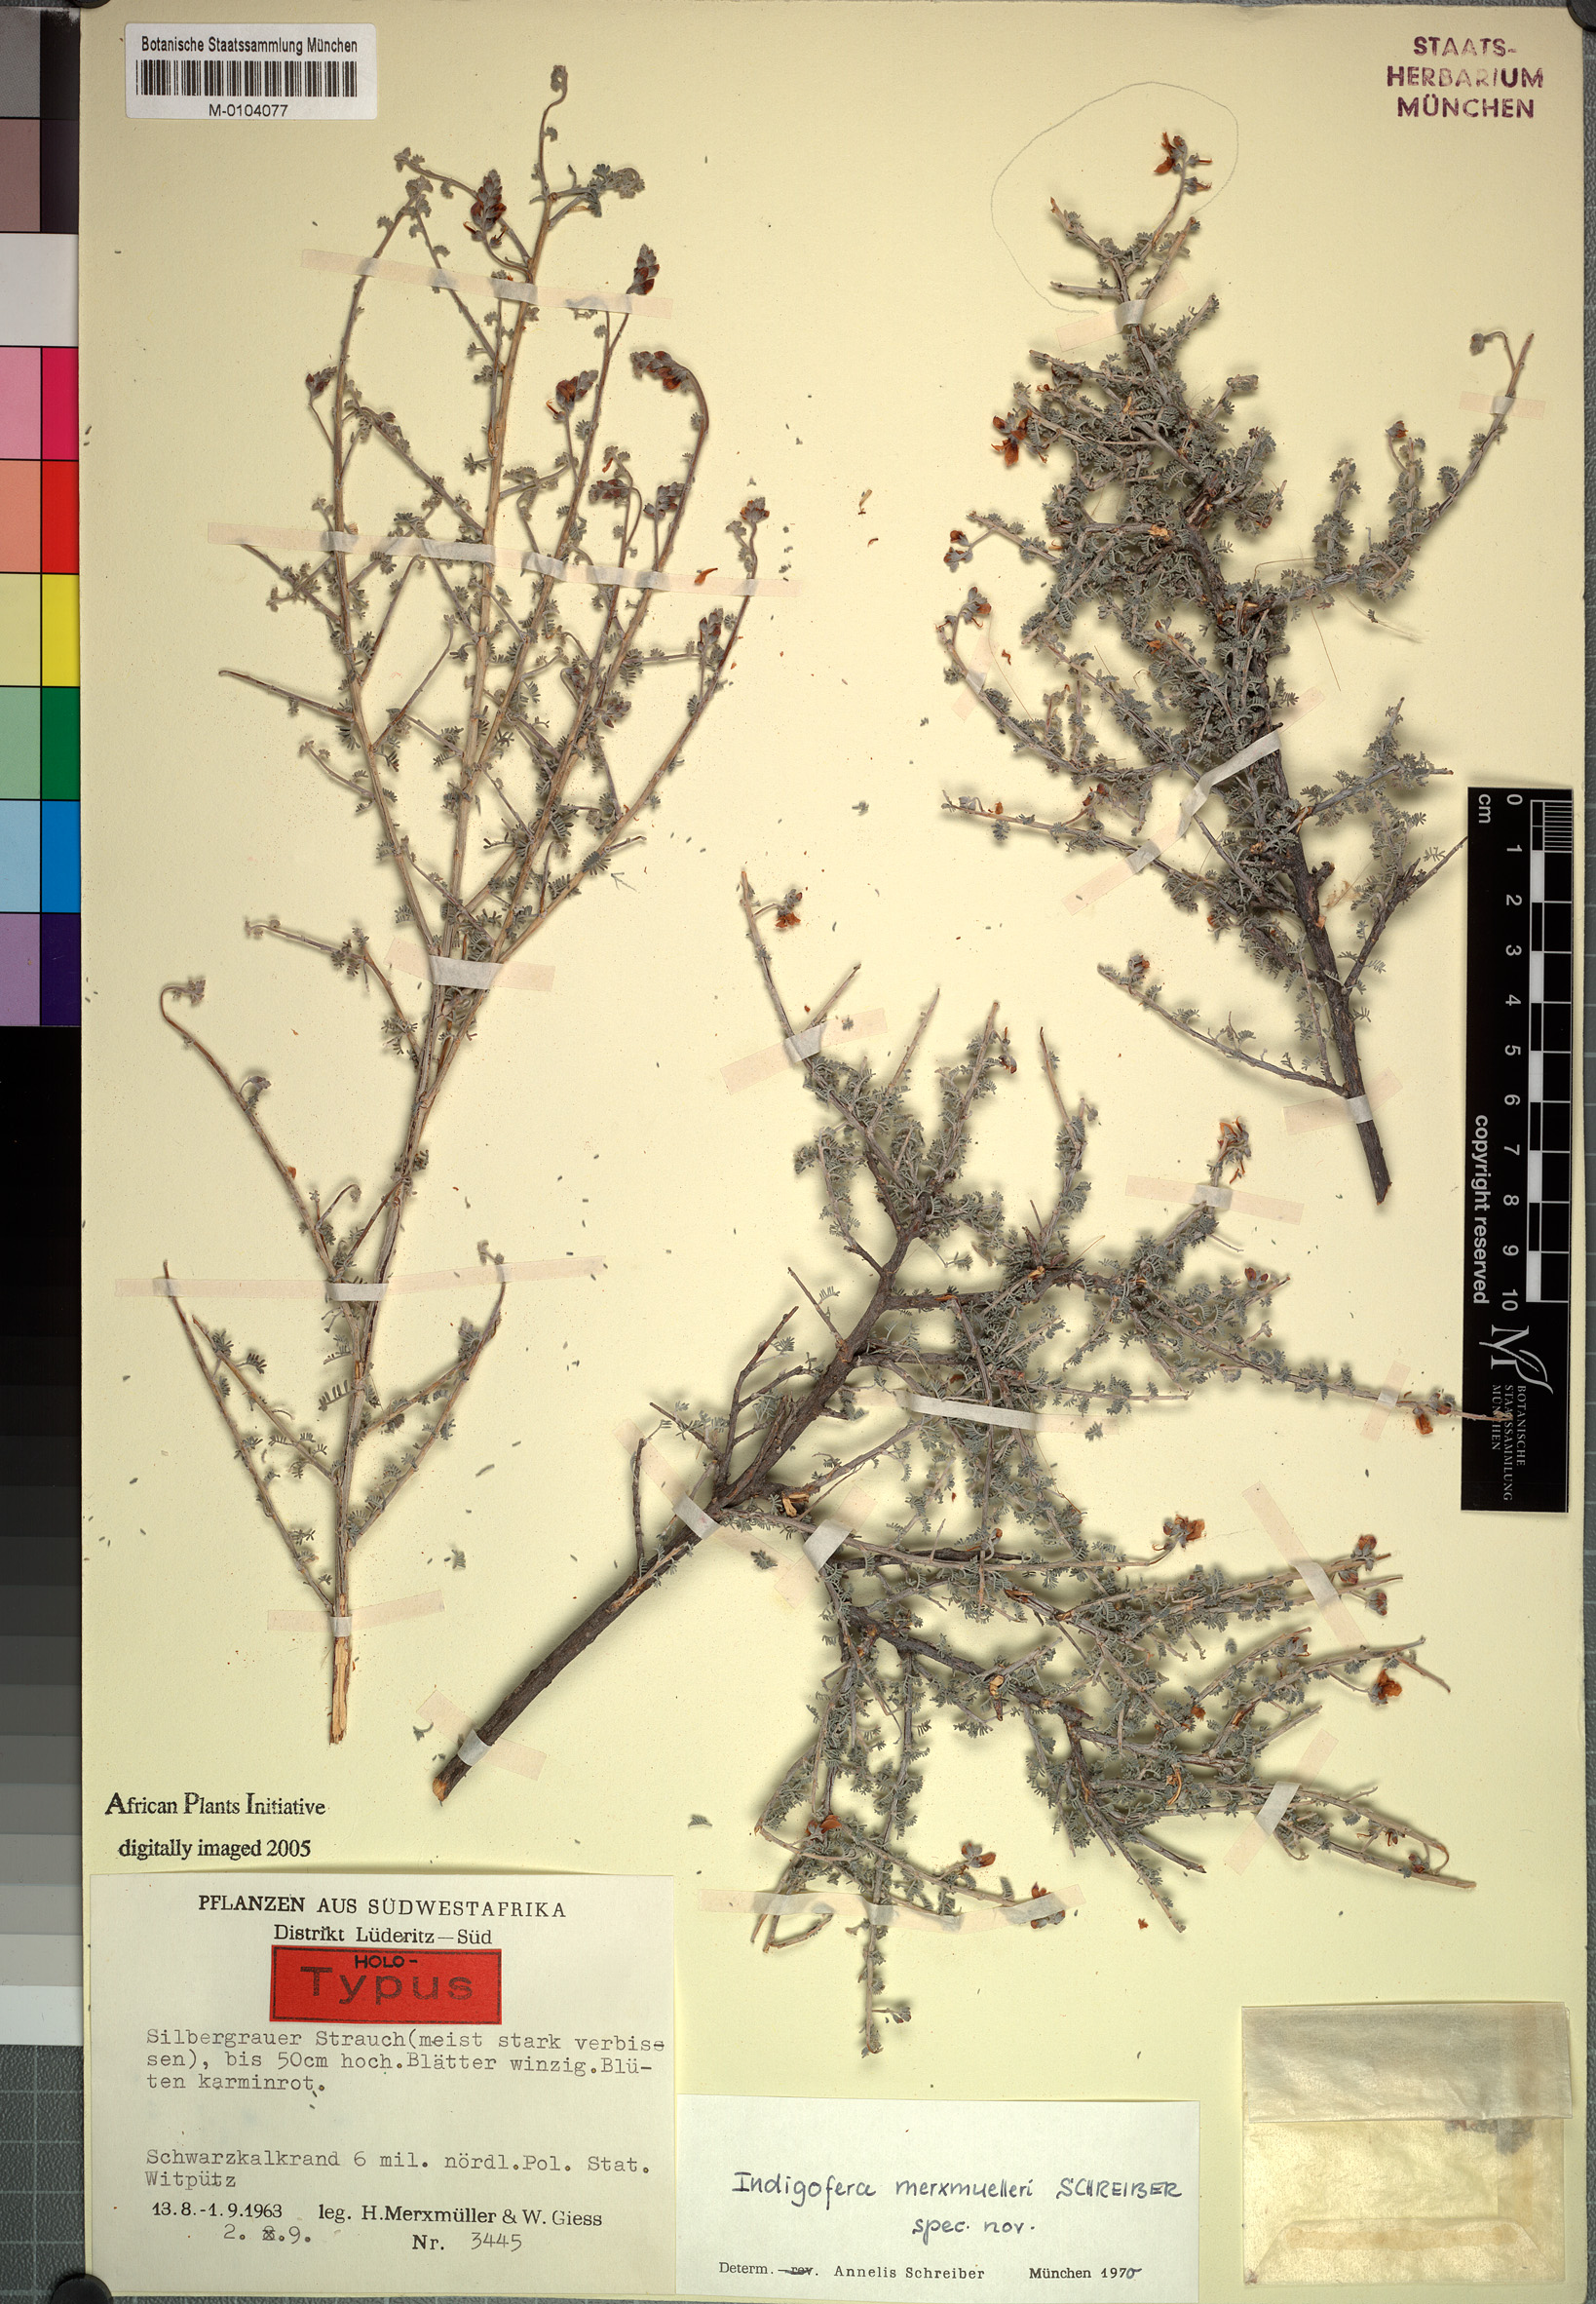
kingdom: Plantae
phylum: Tracheophyta
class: Magnoliopsida
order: Fabales
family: Fabaceae
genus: Indigofera
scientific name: Indigofera merxmuelleri
